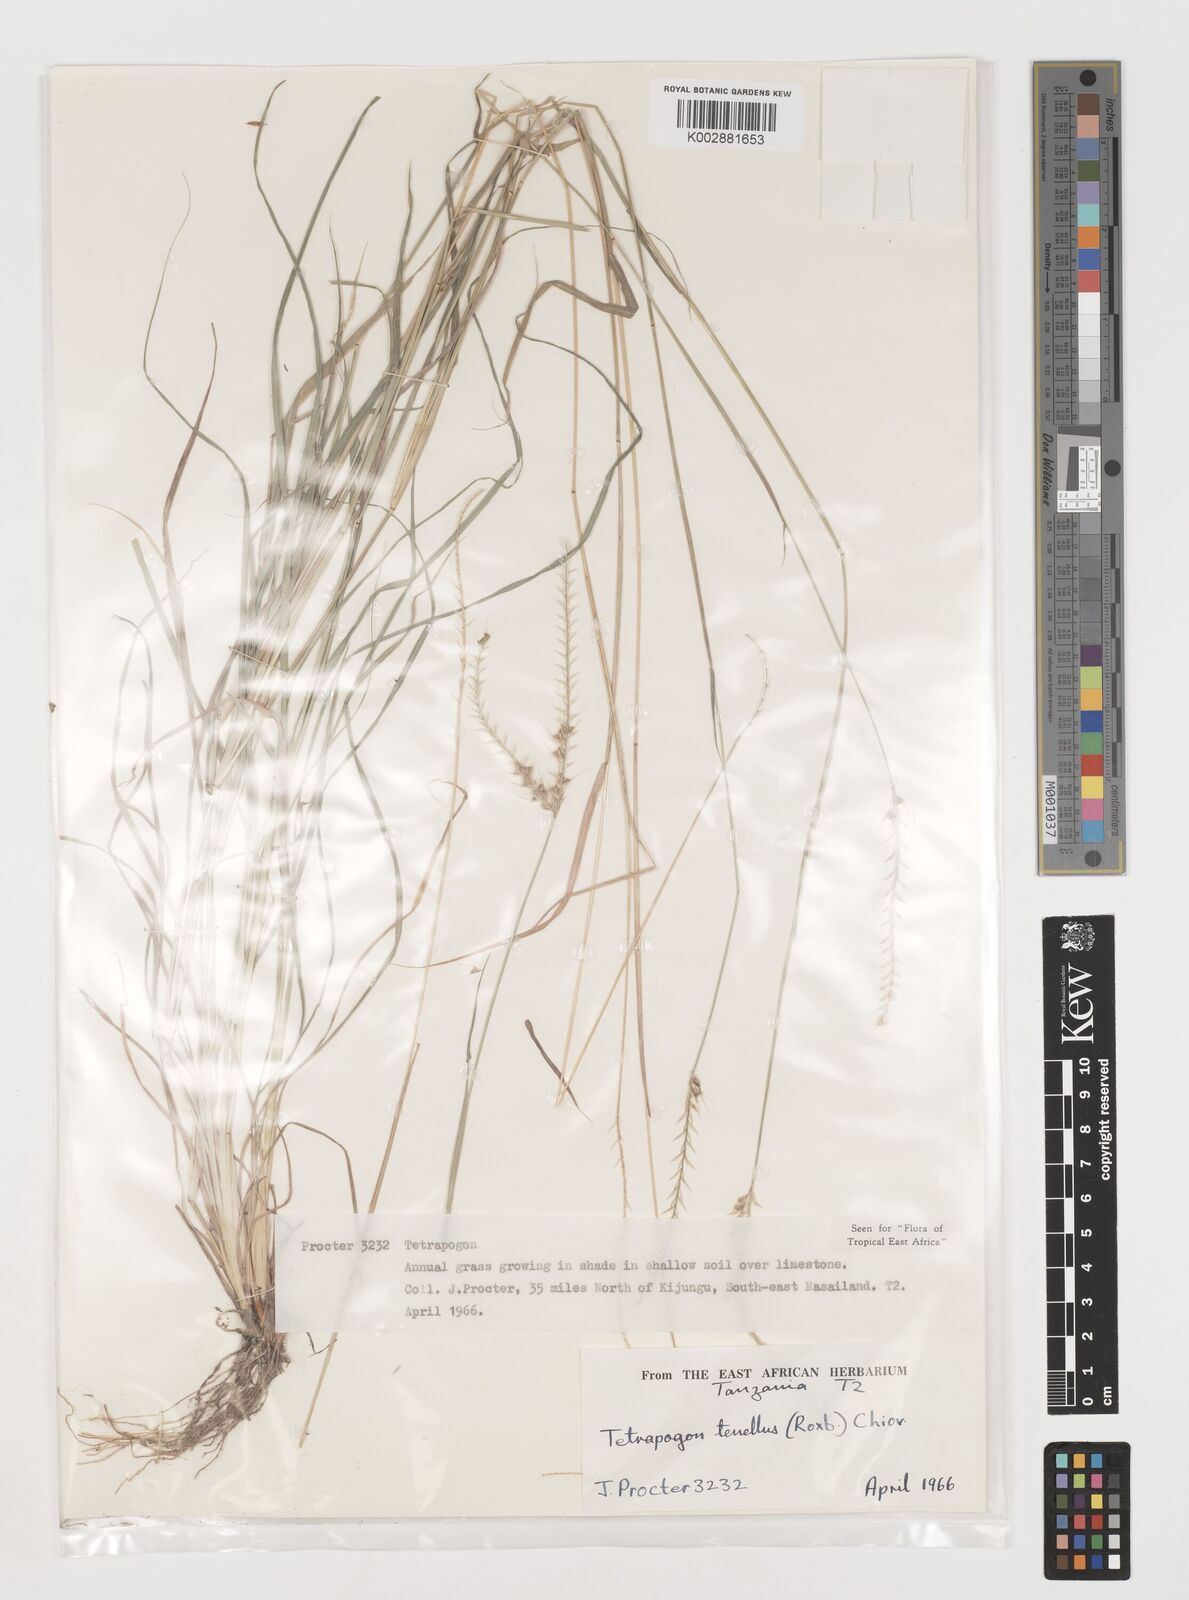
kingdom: Plantae
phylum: Tracheophyta
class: Liliopsida
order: Poales
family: Poaceae
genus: Tetrapogon
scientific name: Tetrapogon tenellus
